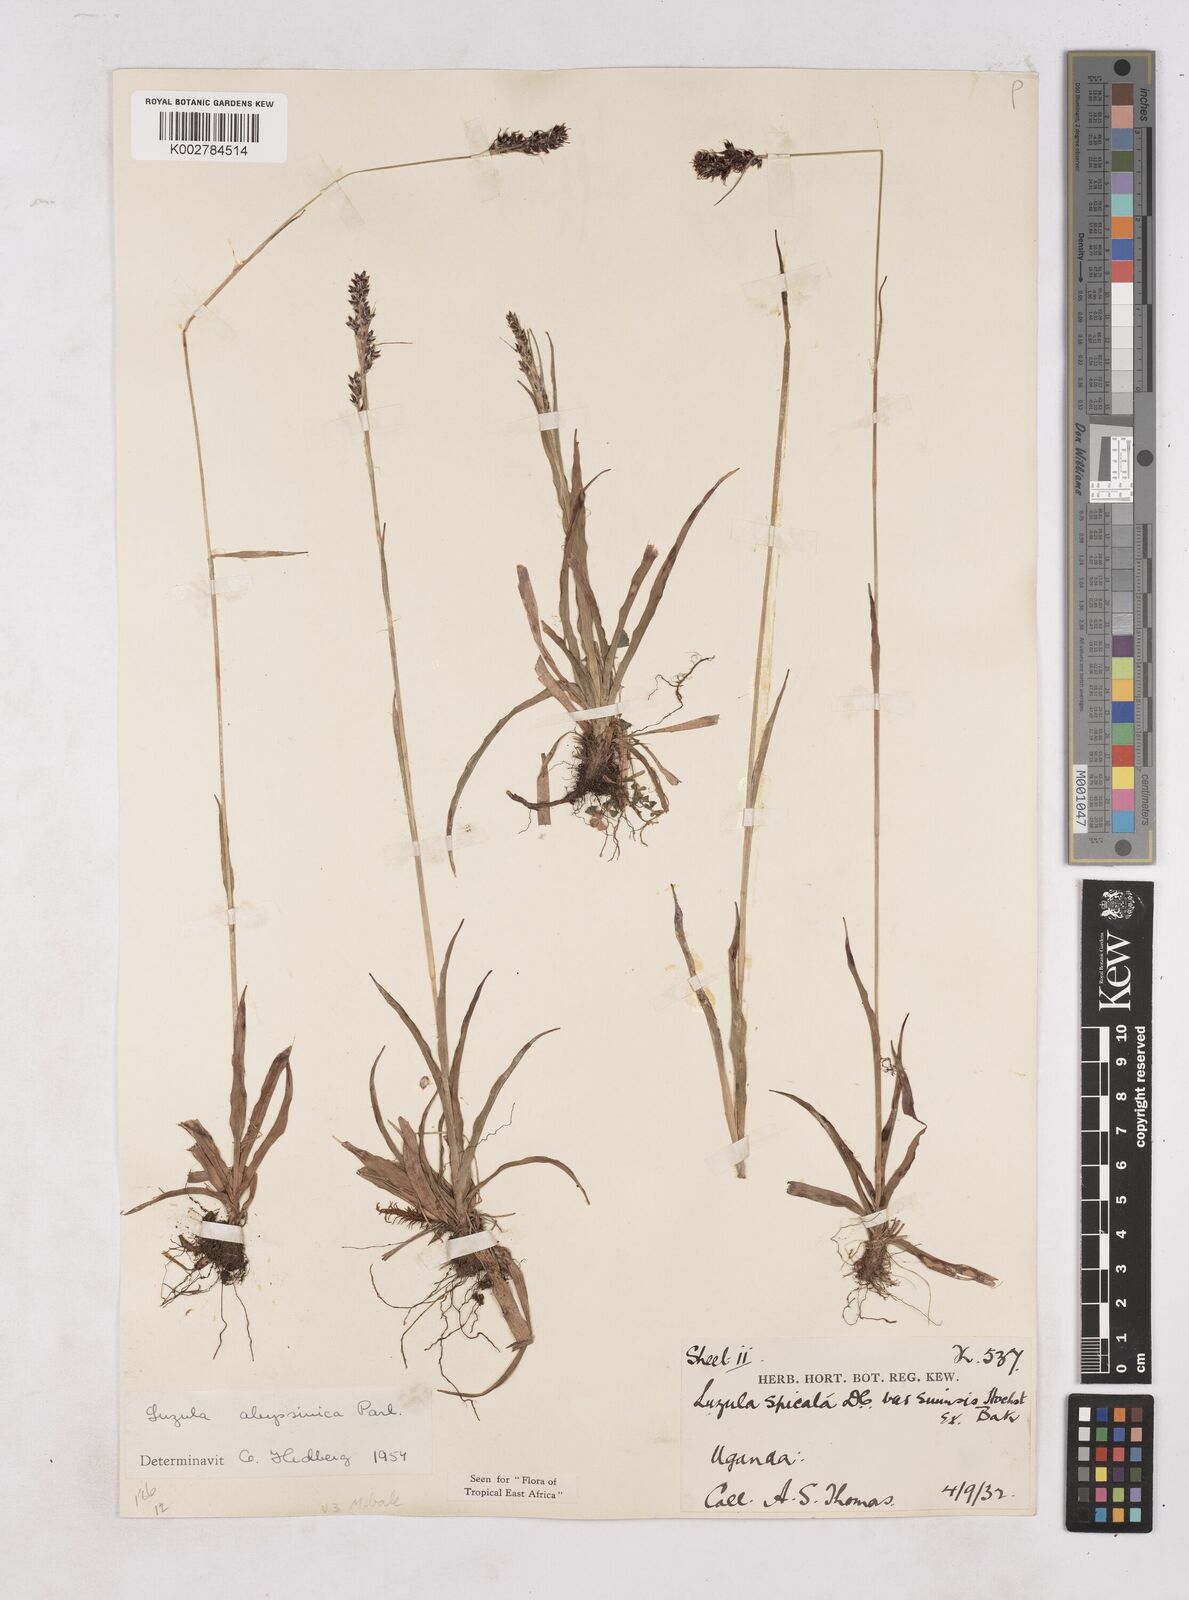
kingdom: Plantae
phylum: Tracheophyta
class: Liliopsida
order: Poales
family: Juncaceae
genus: Luzula
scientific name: Luzula abyssinica
